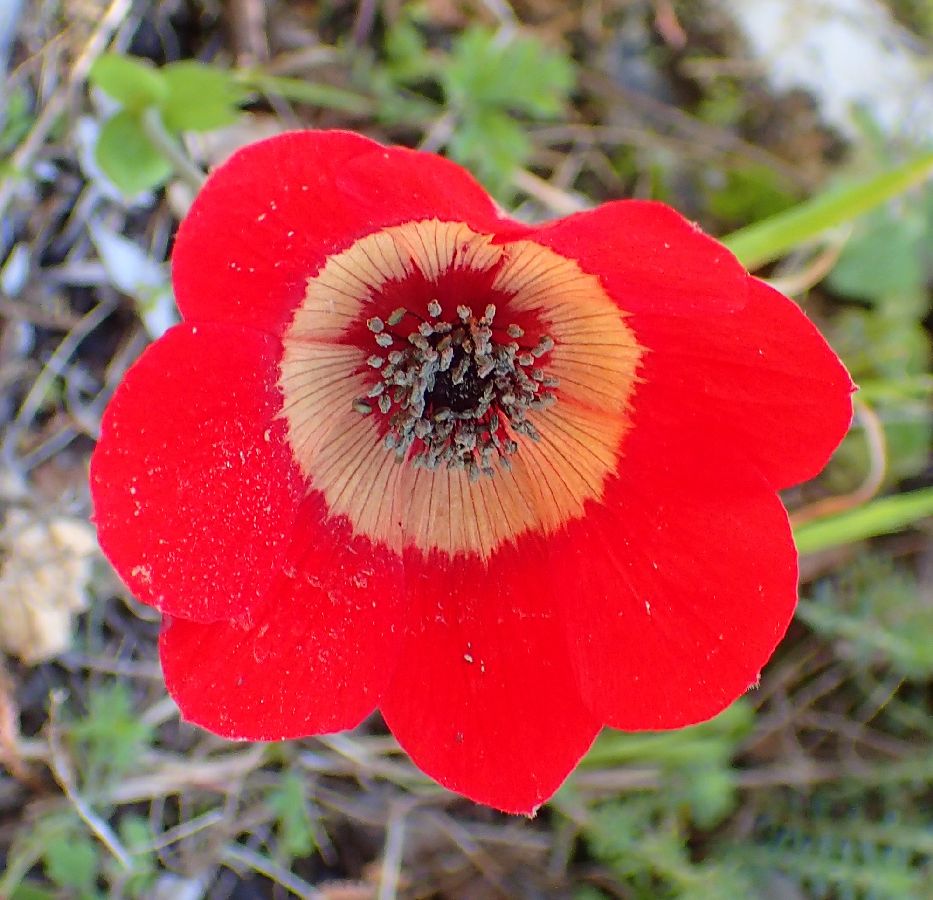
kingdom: Plantae
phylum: Tracheophyta
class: Magnoliopsida
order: Ranunculales
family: Ranunculaceae
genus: Anemone
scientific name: Anemone pavonina
